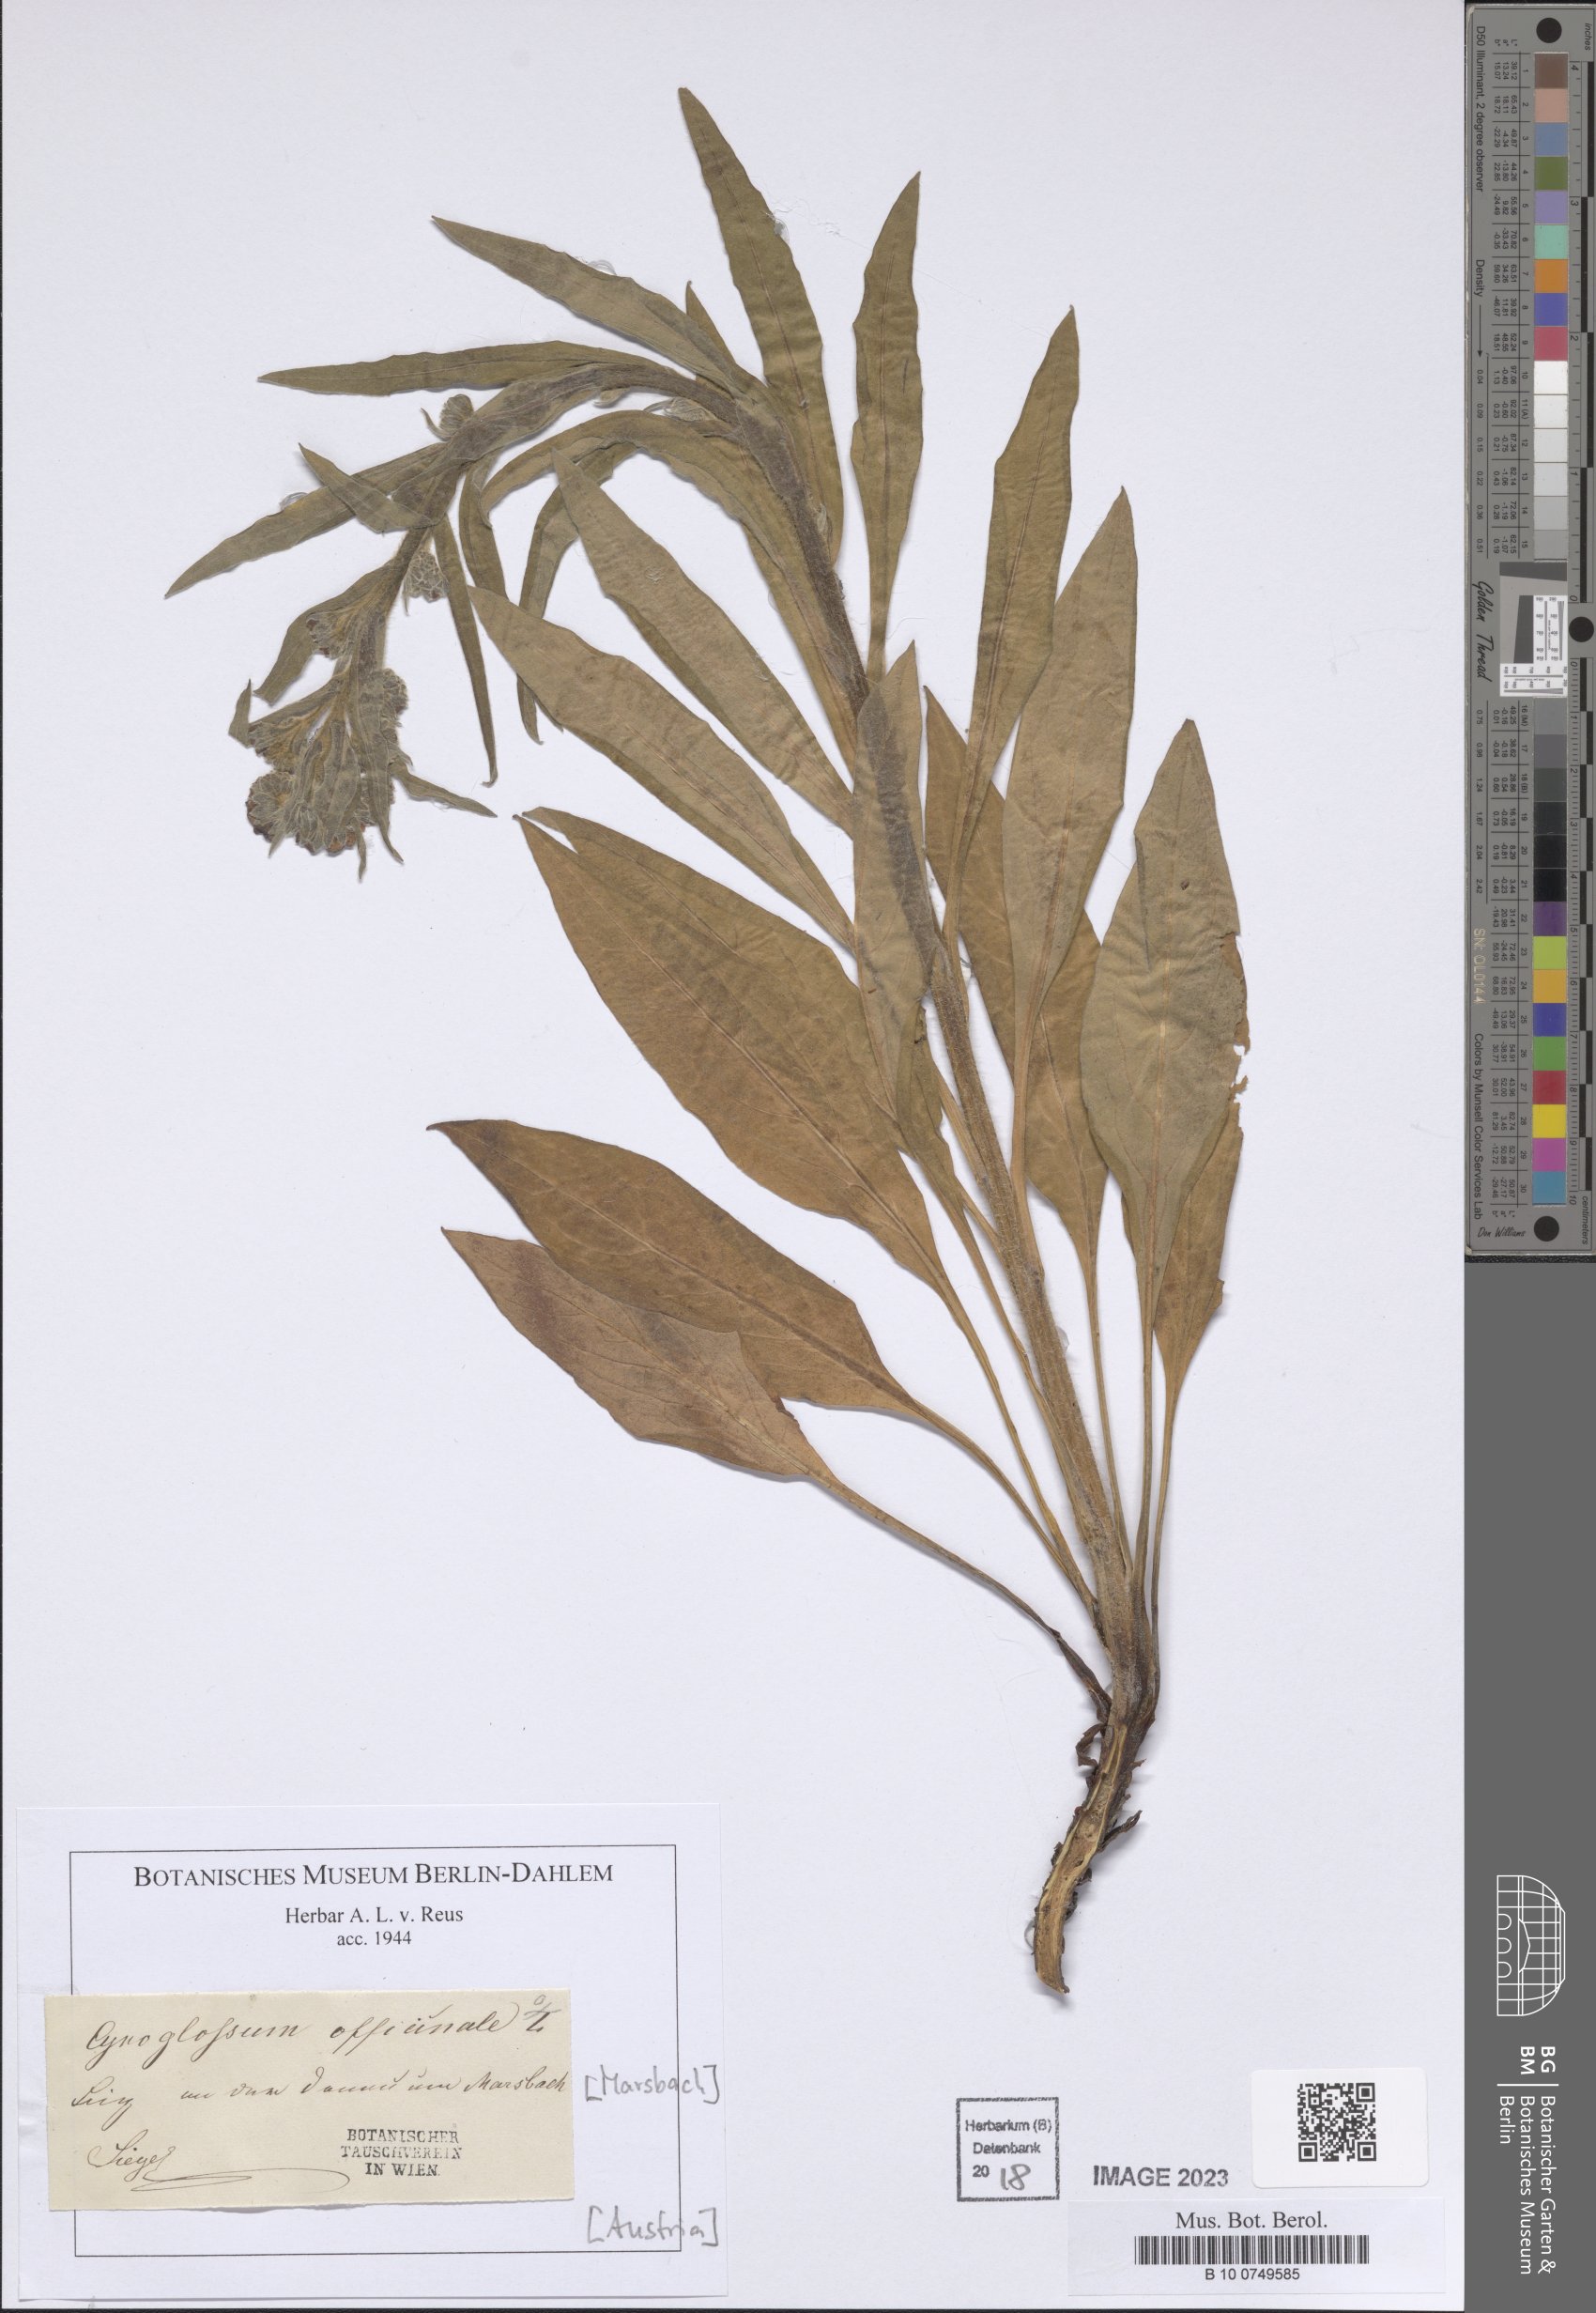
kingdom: Plantae
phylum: Tracheophyta
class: Magnoliopsida
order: Boraginales
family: Boraginaceae
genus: Cynoglossum
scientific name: Cynoglossum officinale
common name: Hound's-tongue
